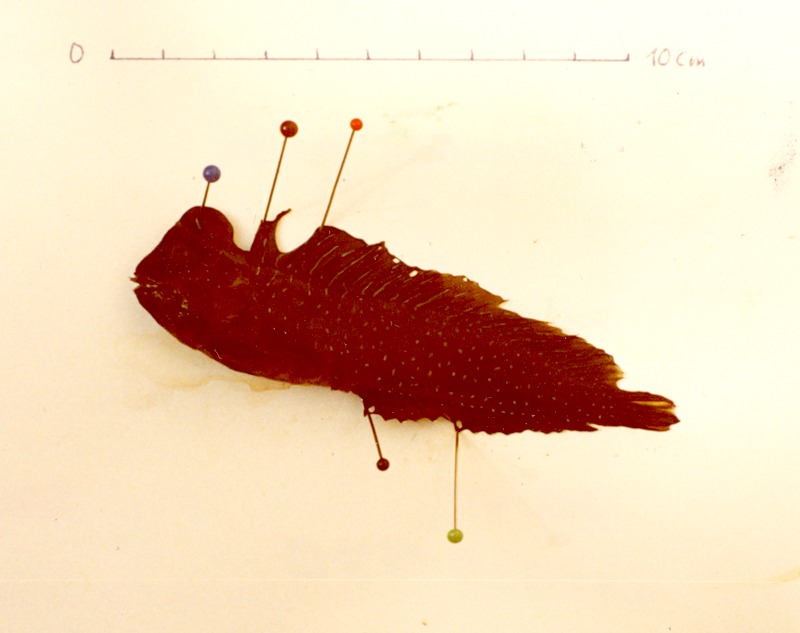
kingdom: Animalia
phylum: Chordata
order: Perciformes
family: Blenniidae
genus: Salaria
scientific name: Salaria pavo
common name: Peacock blenny
